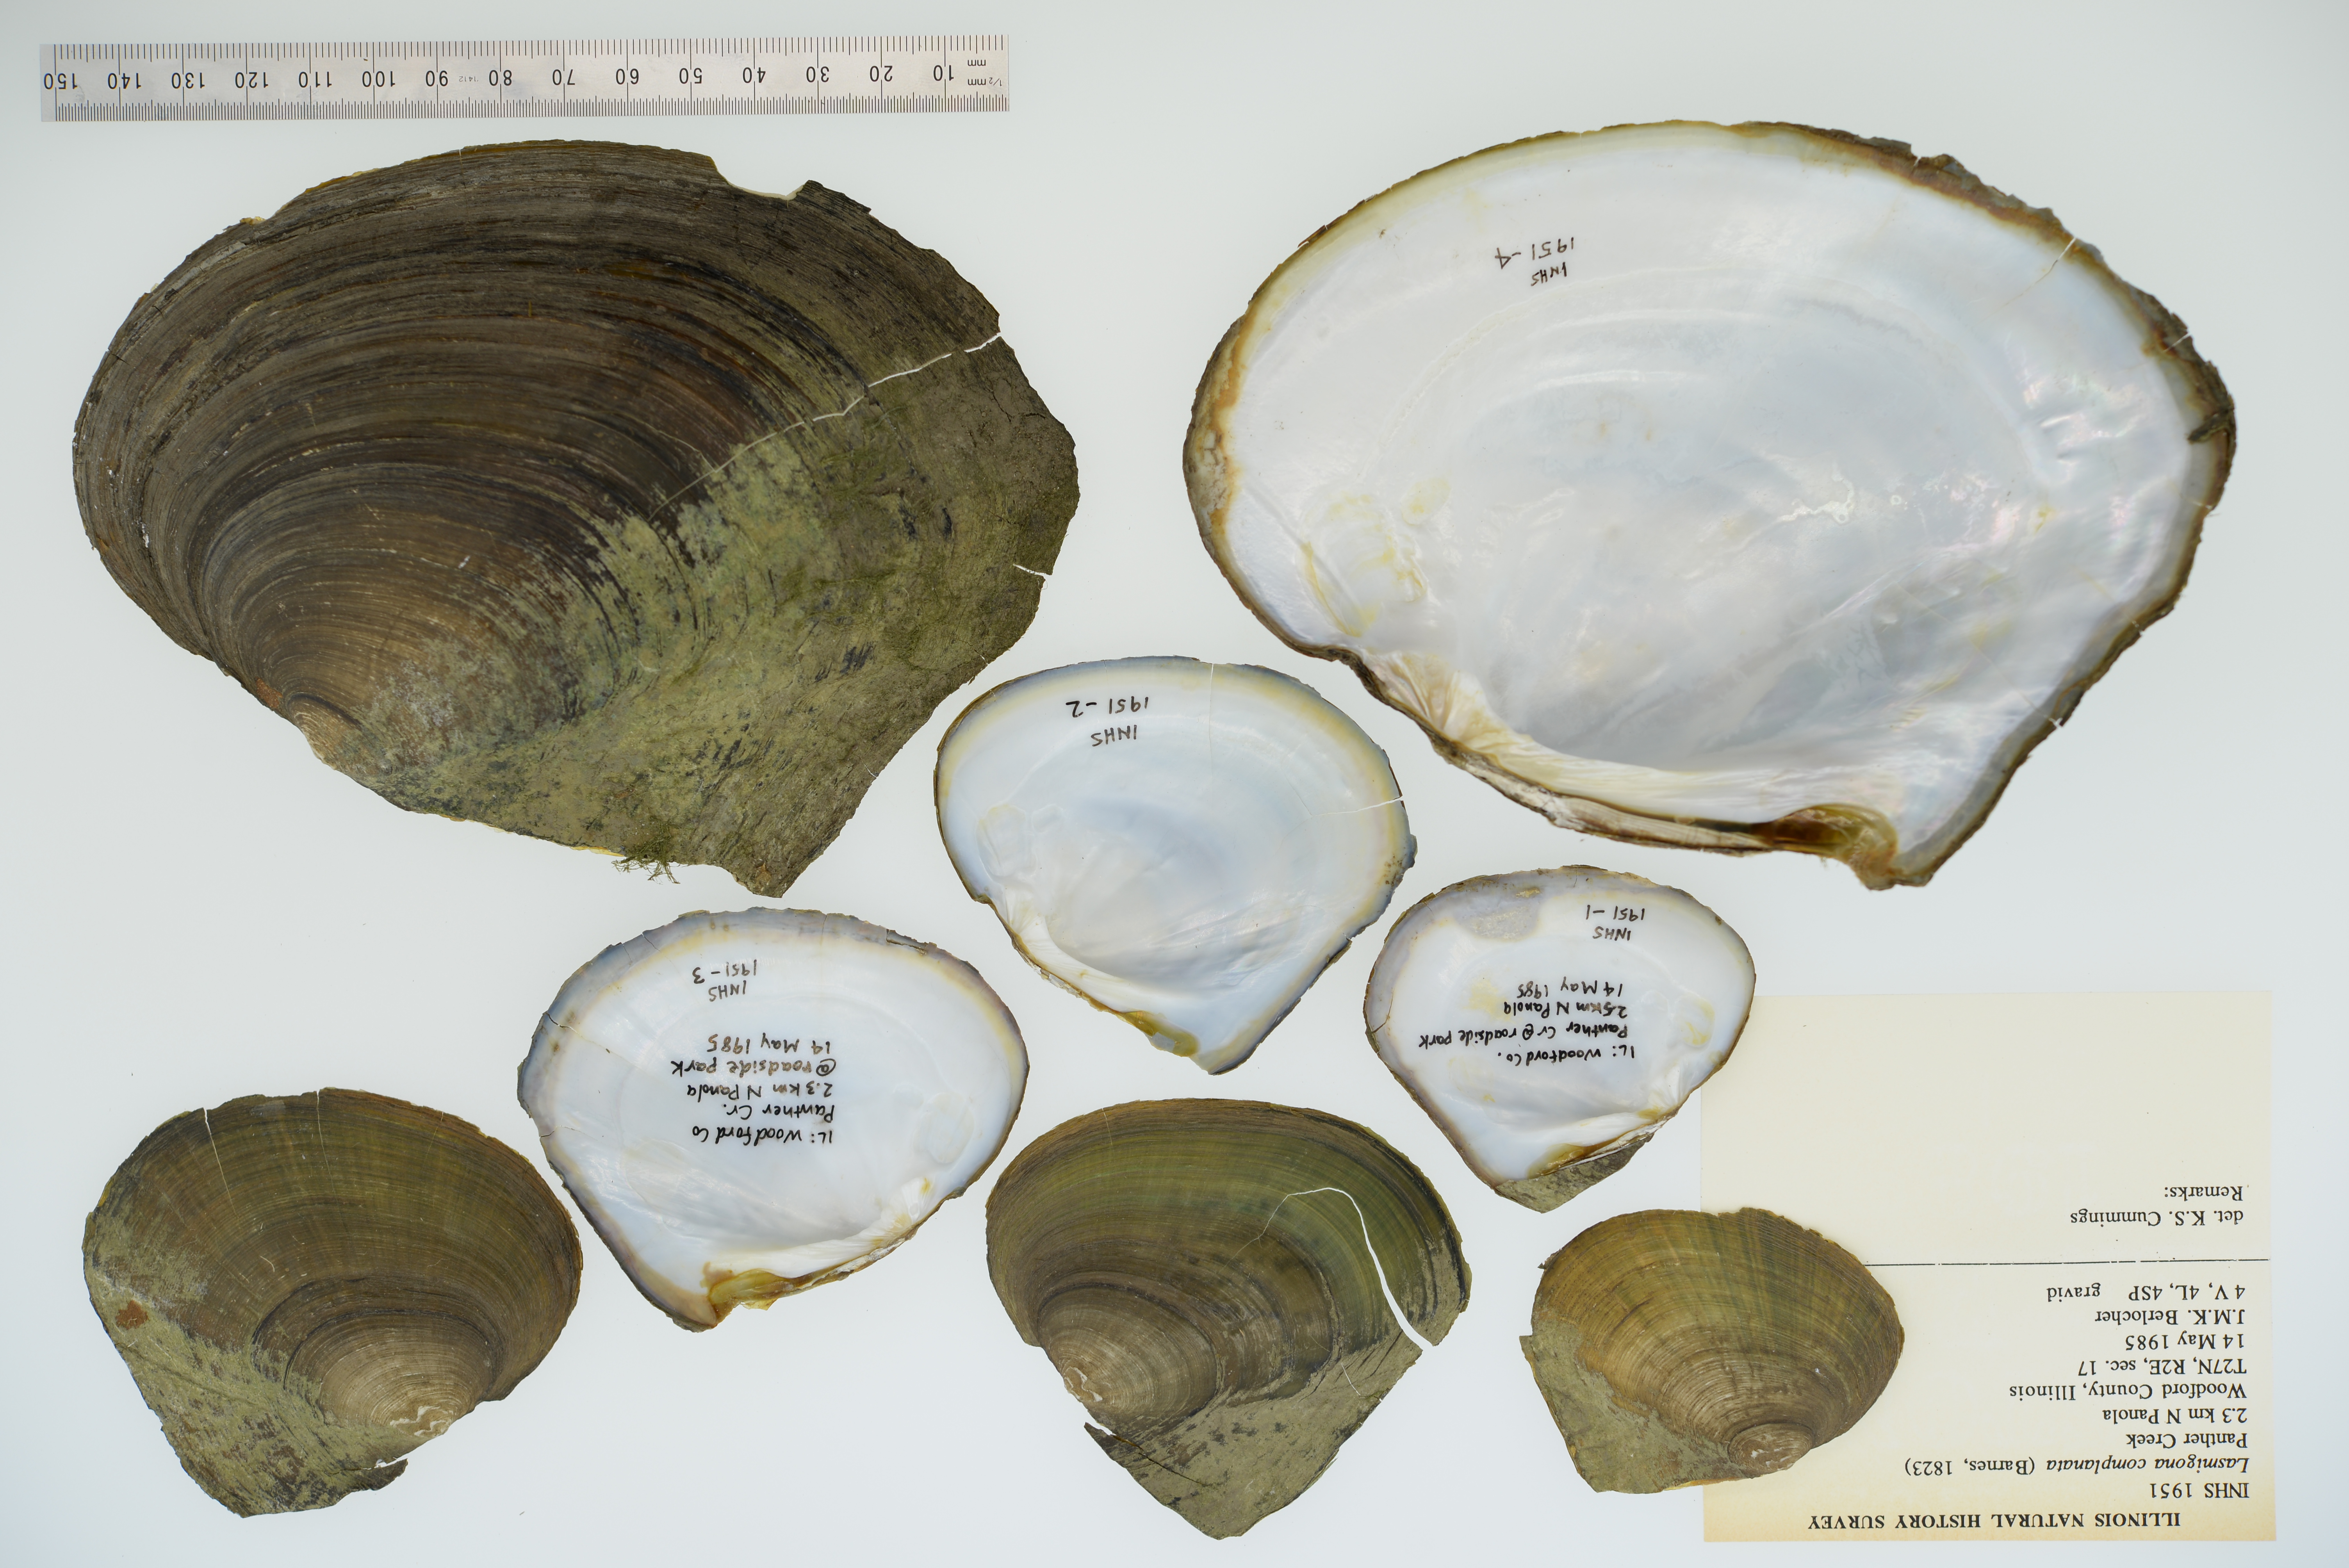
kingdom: Animalia
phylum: Mollusca
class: Bivalvia
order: Unionida
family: Unionidae
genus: Lasmigona
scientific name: Lasmigona complanata
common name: White heelsplitter
